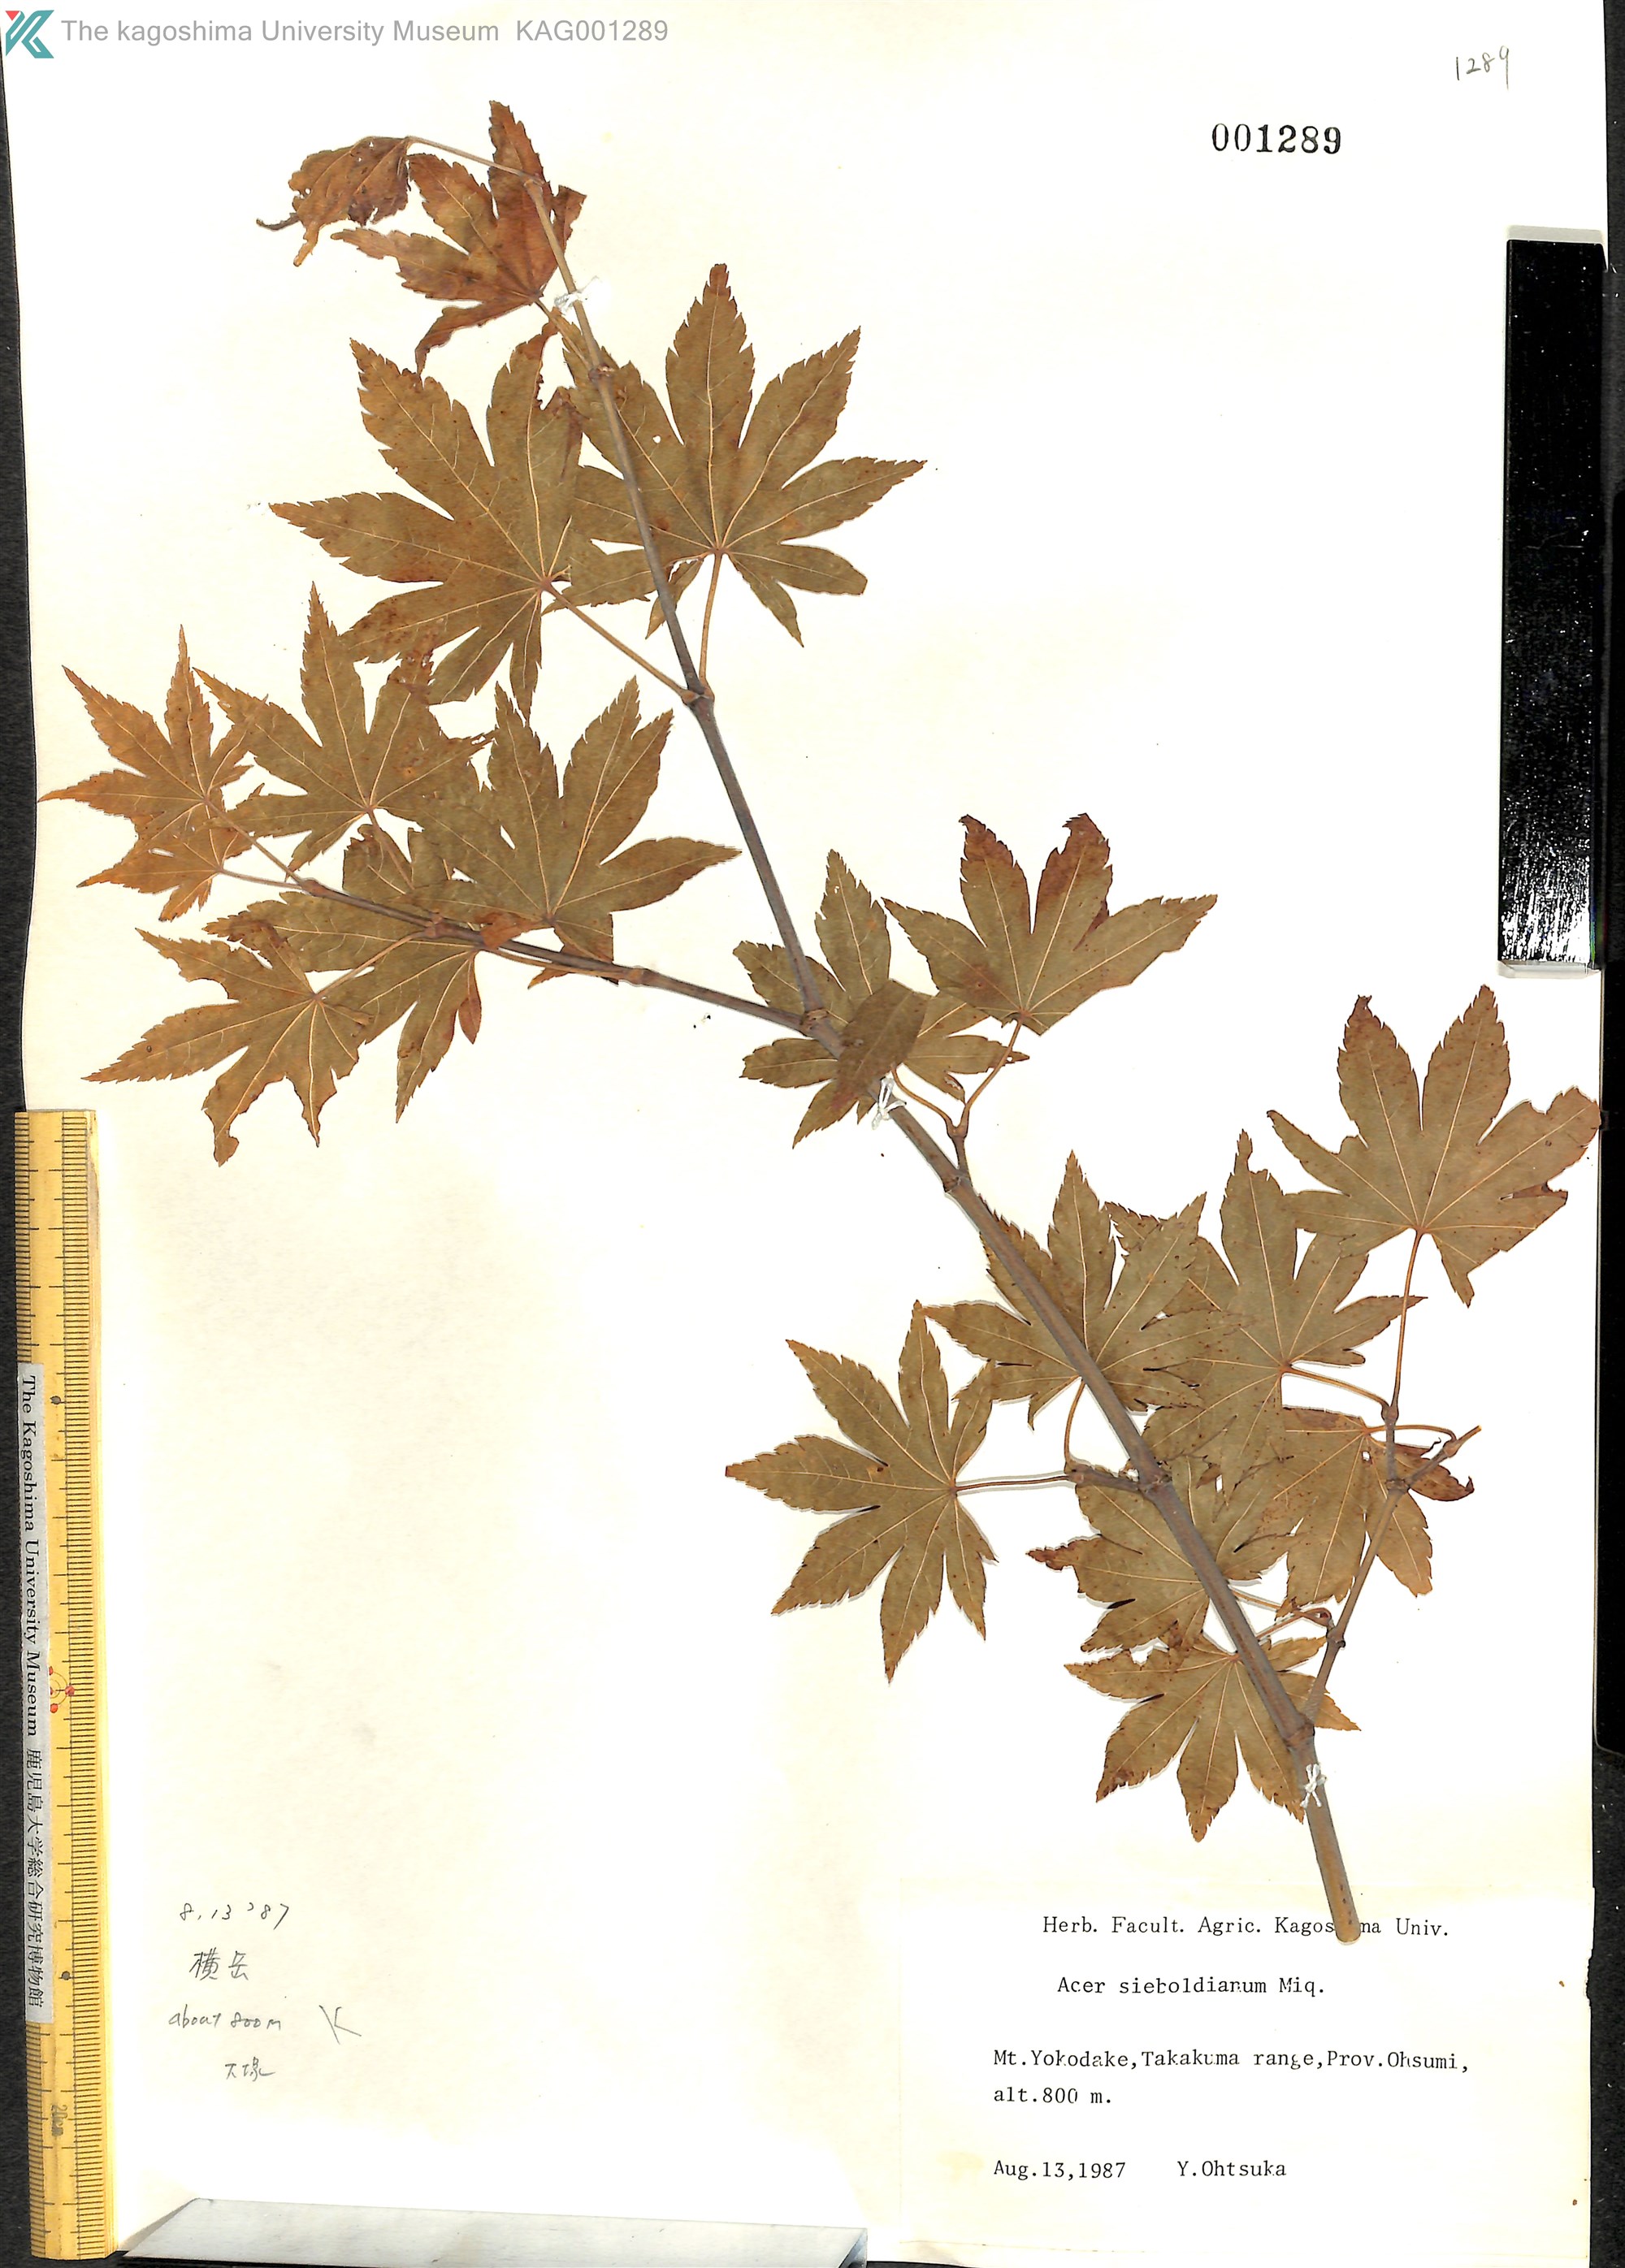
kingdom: Plantae
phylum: Tracheophyta
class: Magnoliopsida
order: Sapindales
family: Sapindaceae
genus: Acer
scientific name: Acer sieboldianum
